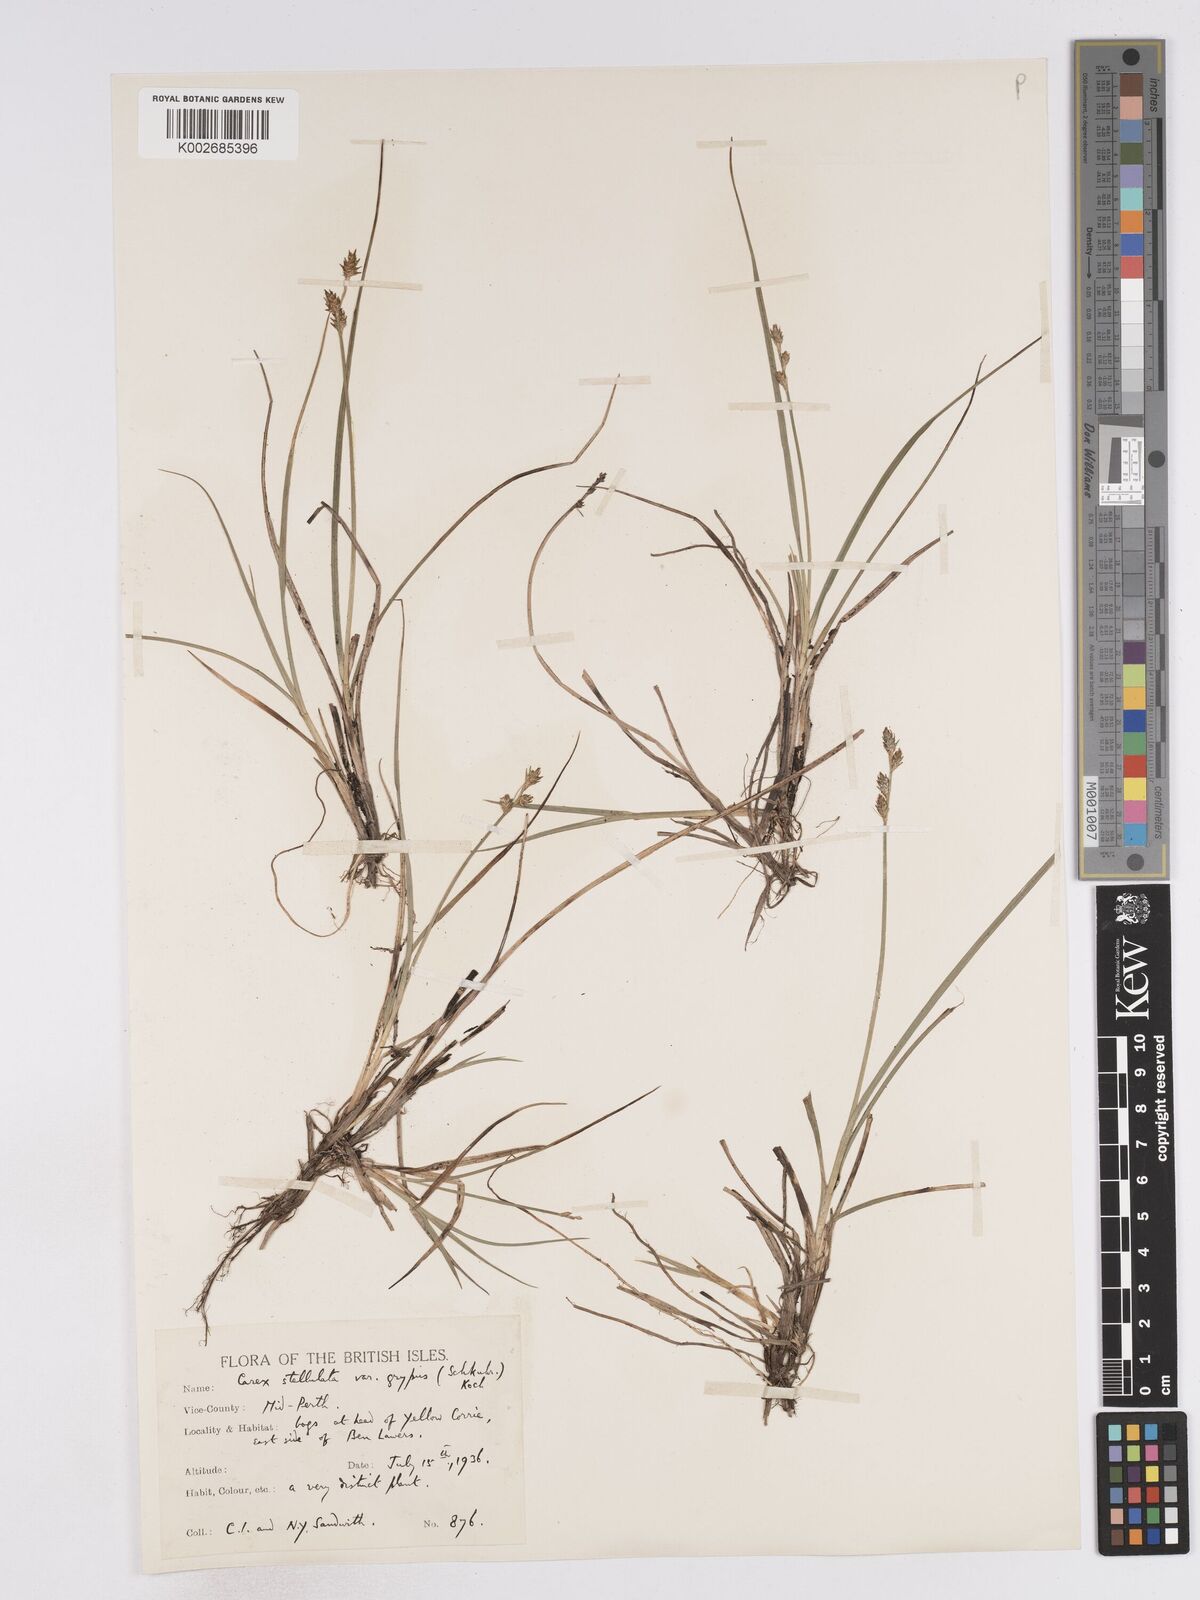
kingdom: Plantae
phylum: Tracheophyta
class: Liliopsida
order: Poales
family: Cyperaceae
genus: Carex
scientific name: Carex echinata
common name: Star sedge
